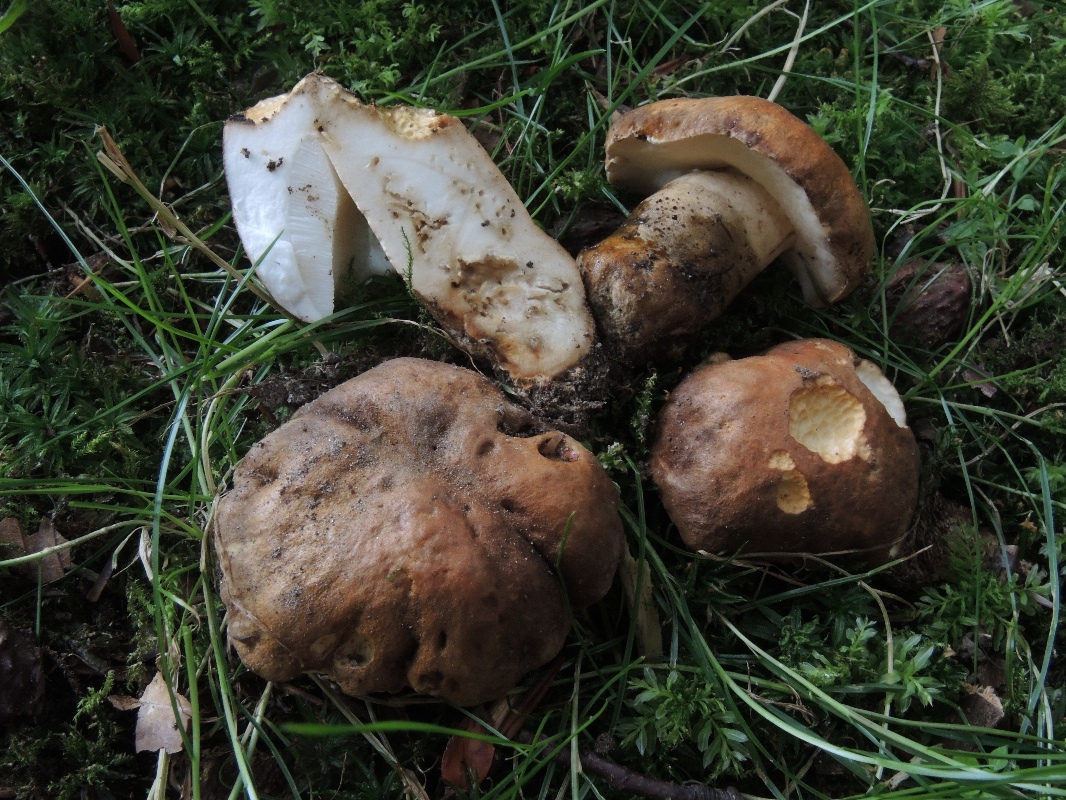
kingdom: Fungi
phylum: Basidiomycota
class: Agaricomycetes
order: Boletales
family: Gyroporaceae
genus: Gyroporus
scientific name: Gyroporus castaneus
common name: kastanie-kammerrørhat
